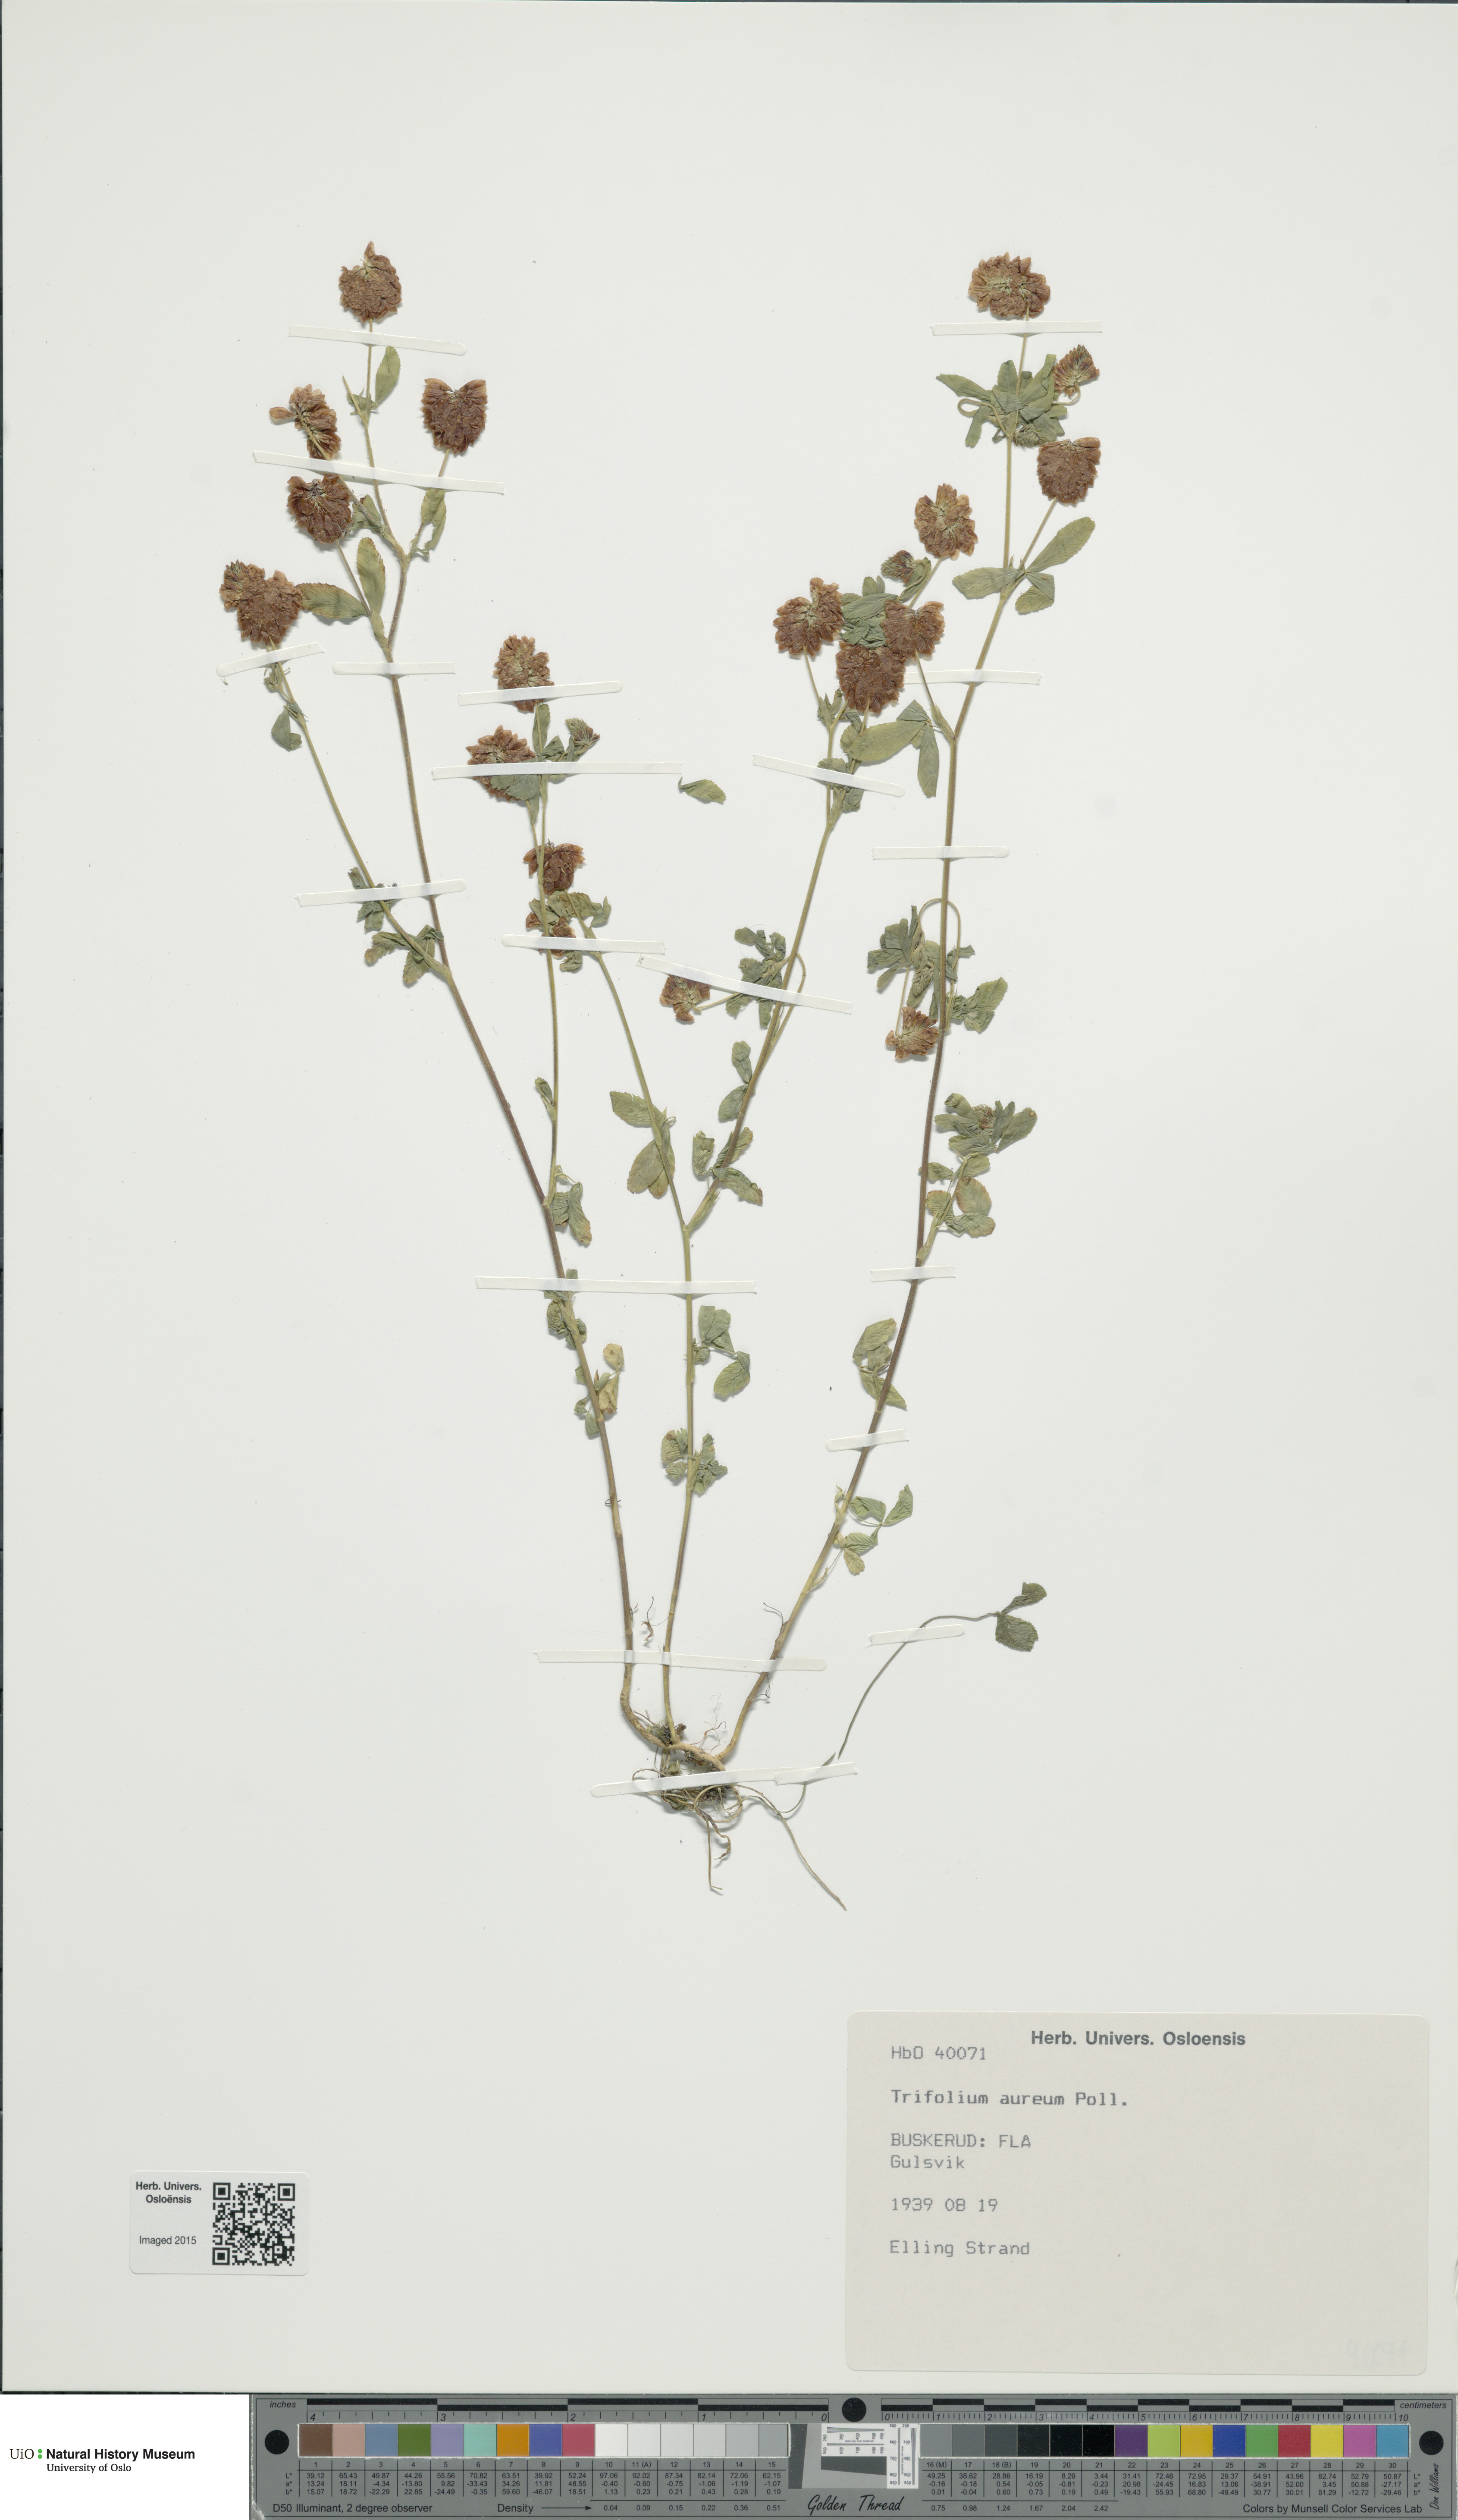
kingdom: Plantae
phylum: Tracheophyta
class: Magnoliopsida
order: Fabales
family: Fabaceae
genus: Trifolium
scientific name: Trifolium aureum
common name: Golden clover
